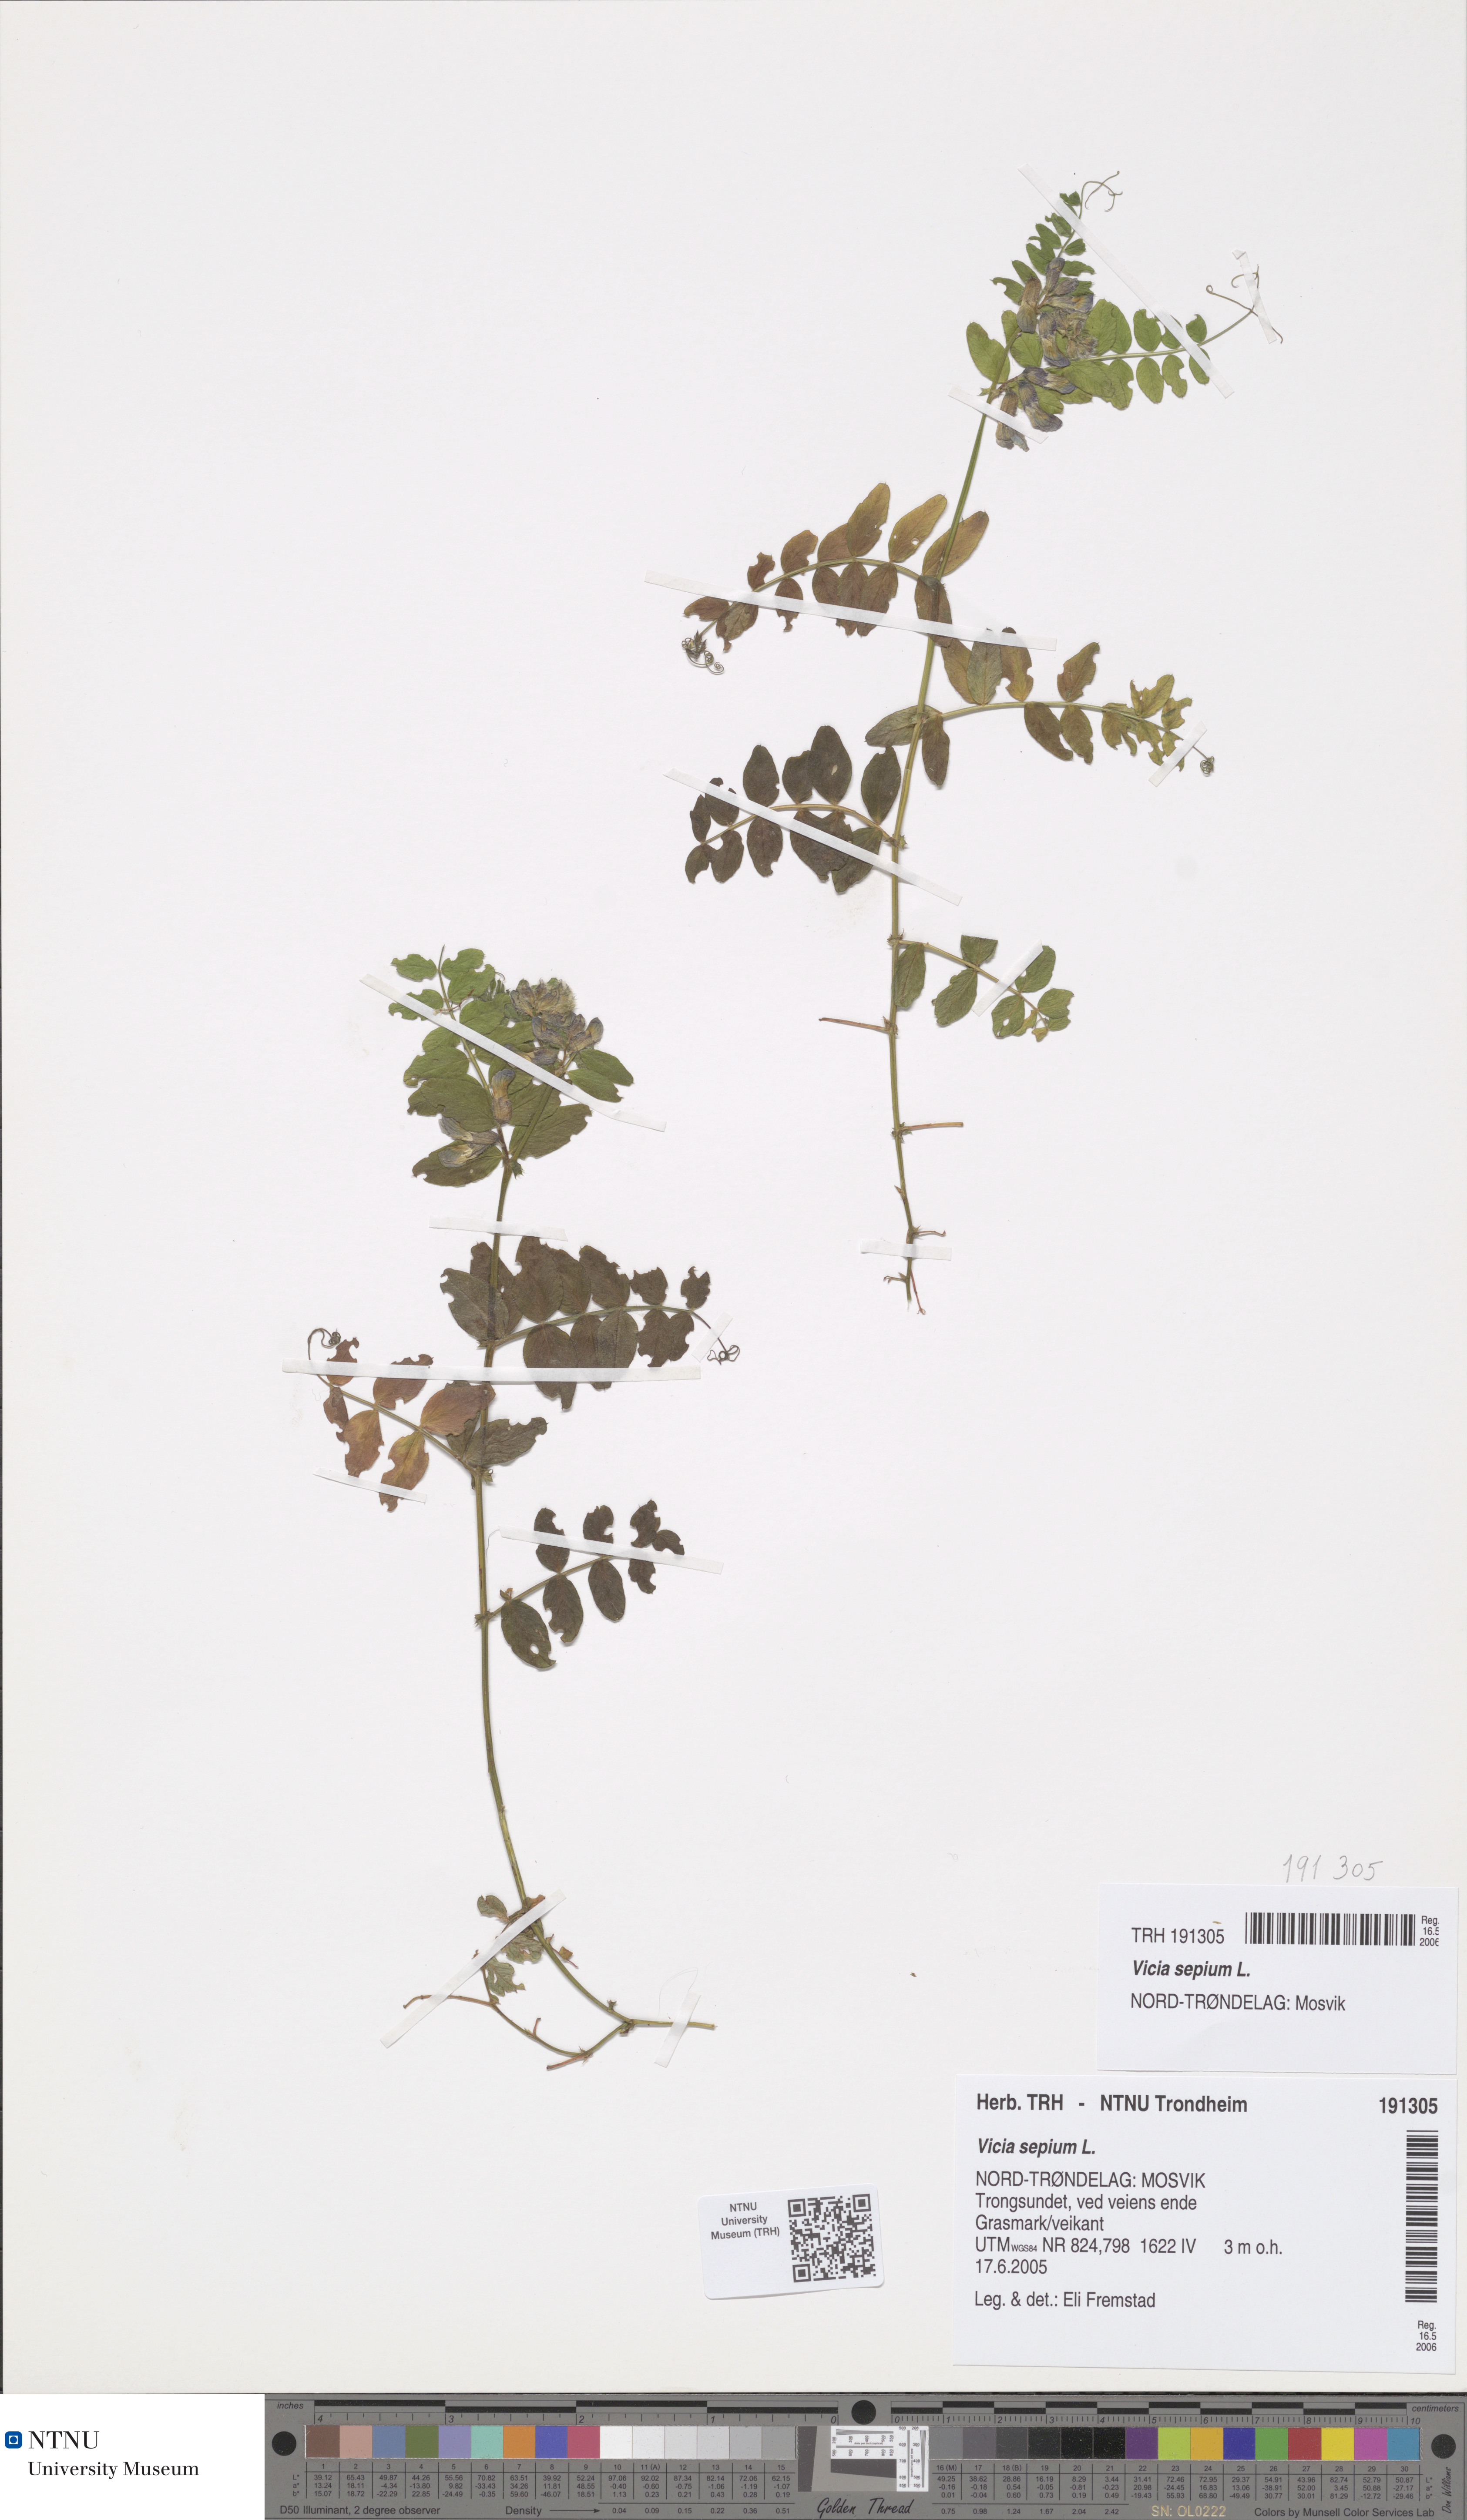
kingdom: Plantae
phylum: Tracheophyta
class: Magnoliopsida
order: Fabales
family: Fabaceae
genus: Vicia
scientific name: Vicia sepium
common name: Bush vetch
